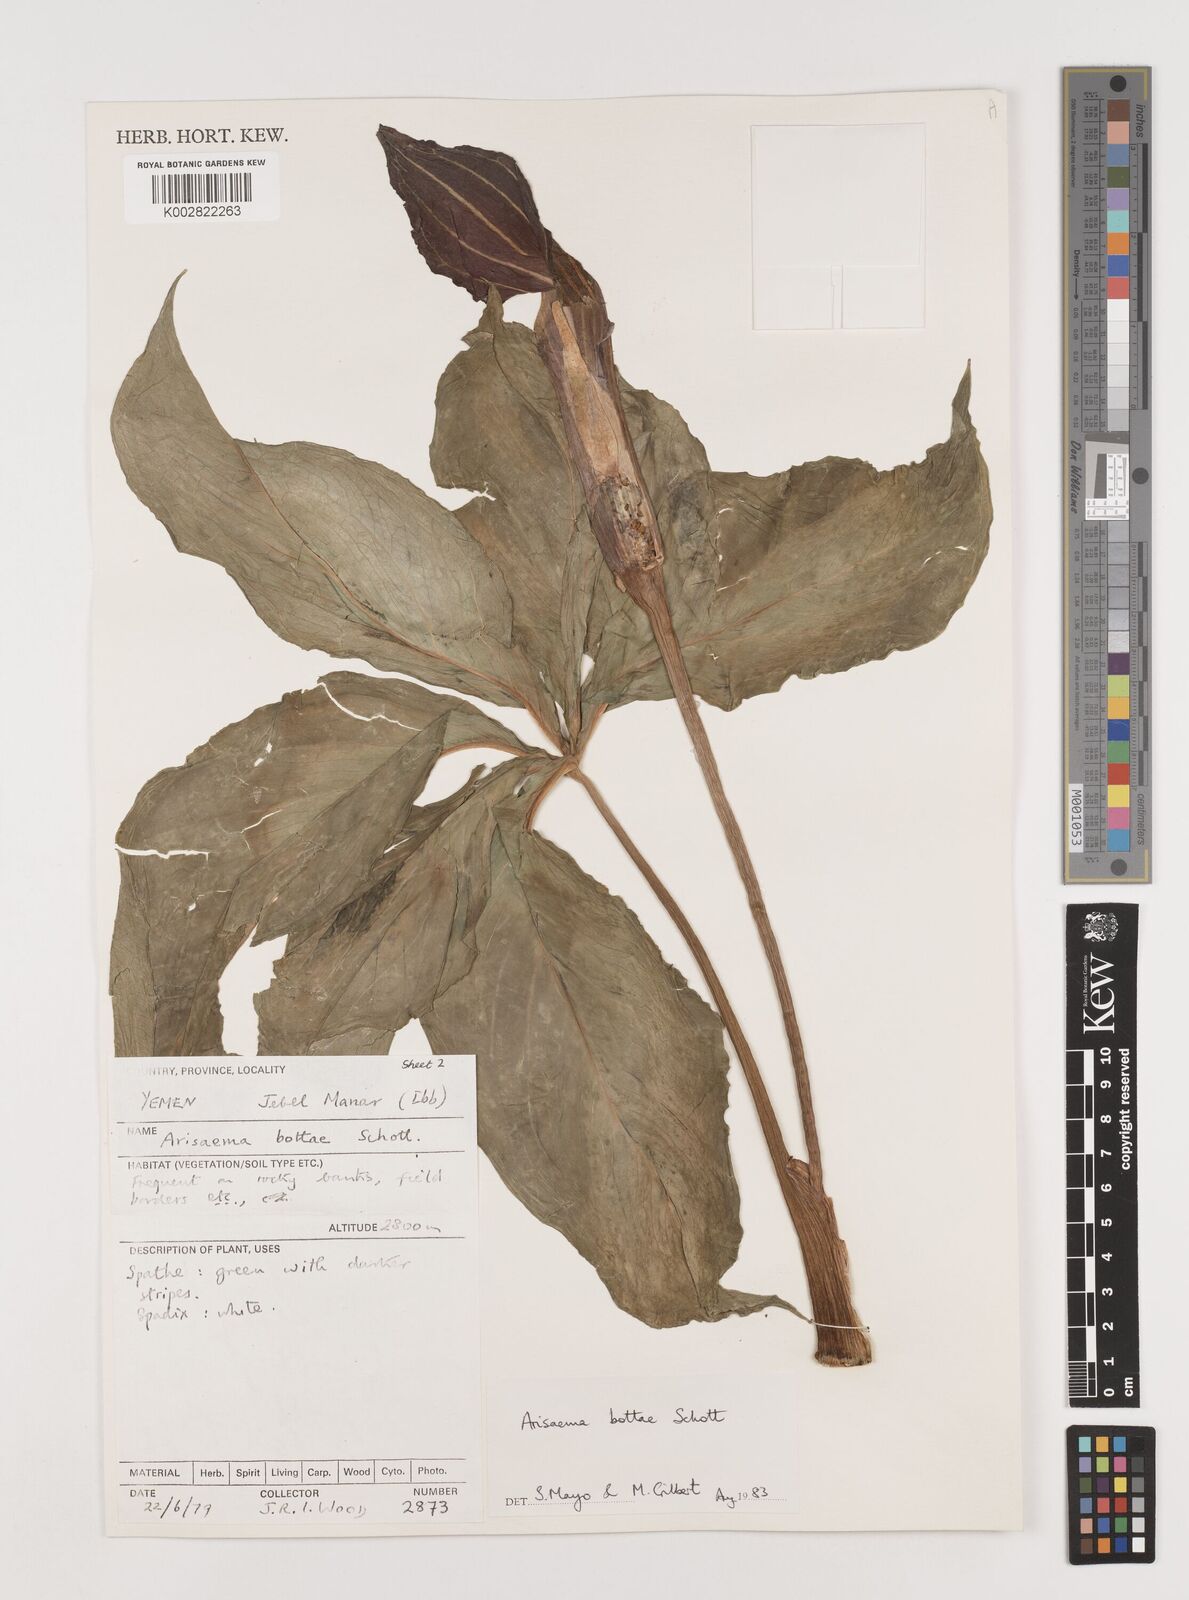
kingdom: Plantae
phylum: Tracheophyta
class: Liliopsida
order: Alismatales
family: Araceae
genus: Arisaema
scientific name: Arisaema bottae
